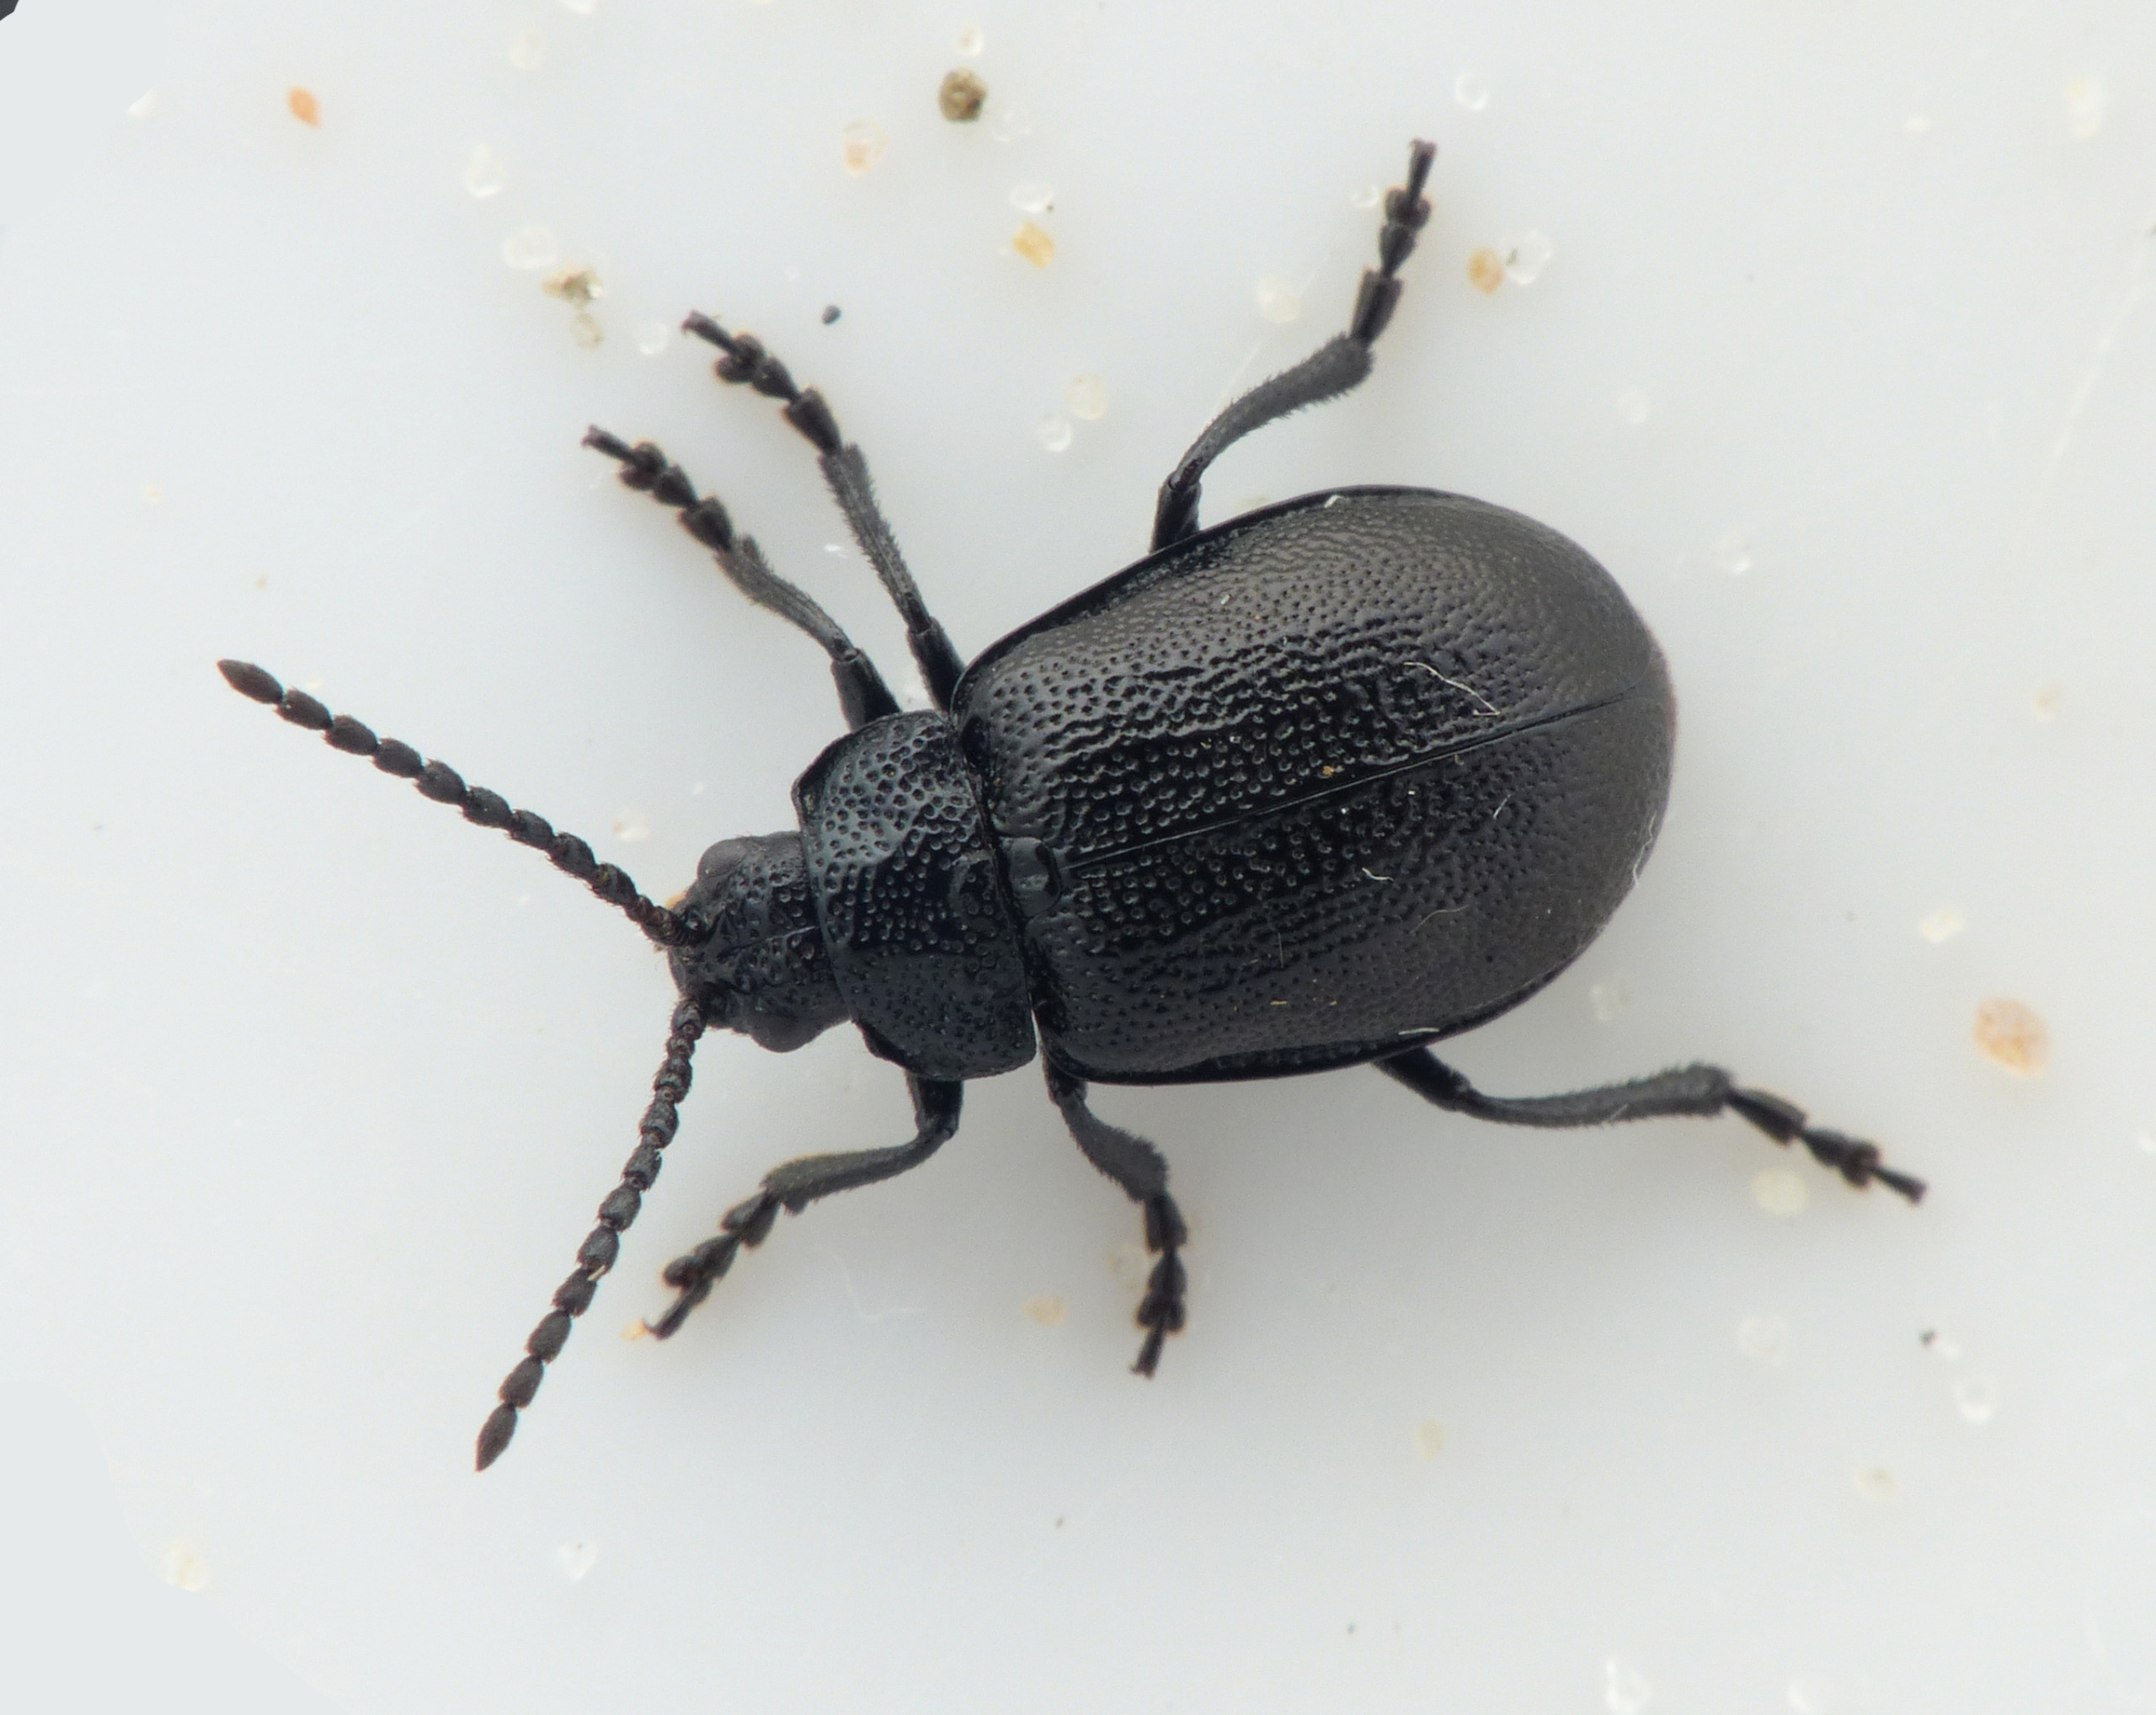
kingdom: Animalia
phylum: Arthropoda
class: Insecta
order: Coleoptera
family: Chrysomelidae
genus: Galeruca
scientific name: Galeruca tanaceti
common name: Rejnfanbladbille
